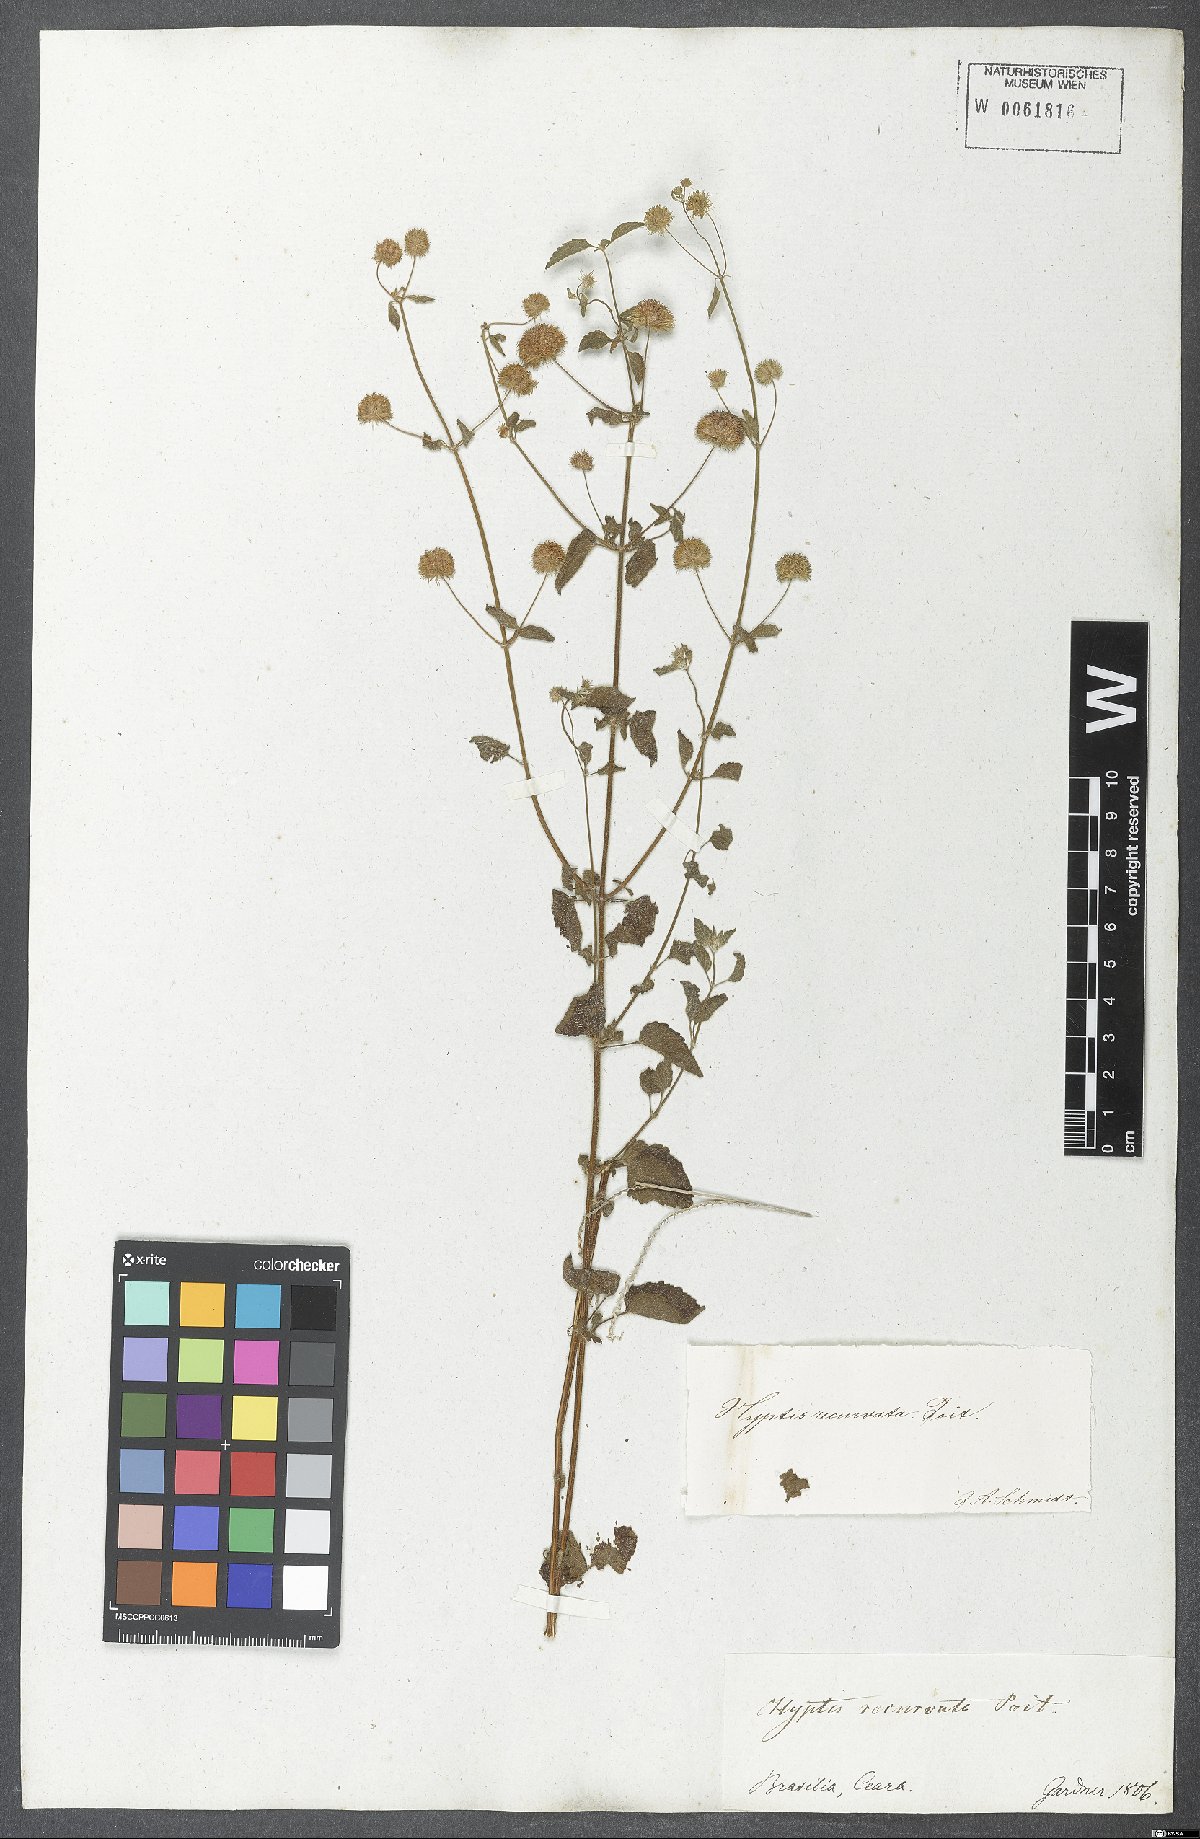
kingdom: Plantae
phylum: Tracheophyta
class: Magnoliopsida
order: Lamiales
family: Lamiaceae
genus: Hyptis
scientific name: Hyptis recurvata
